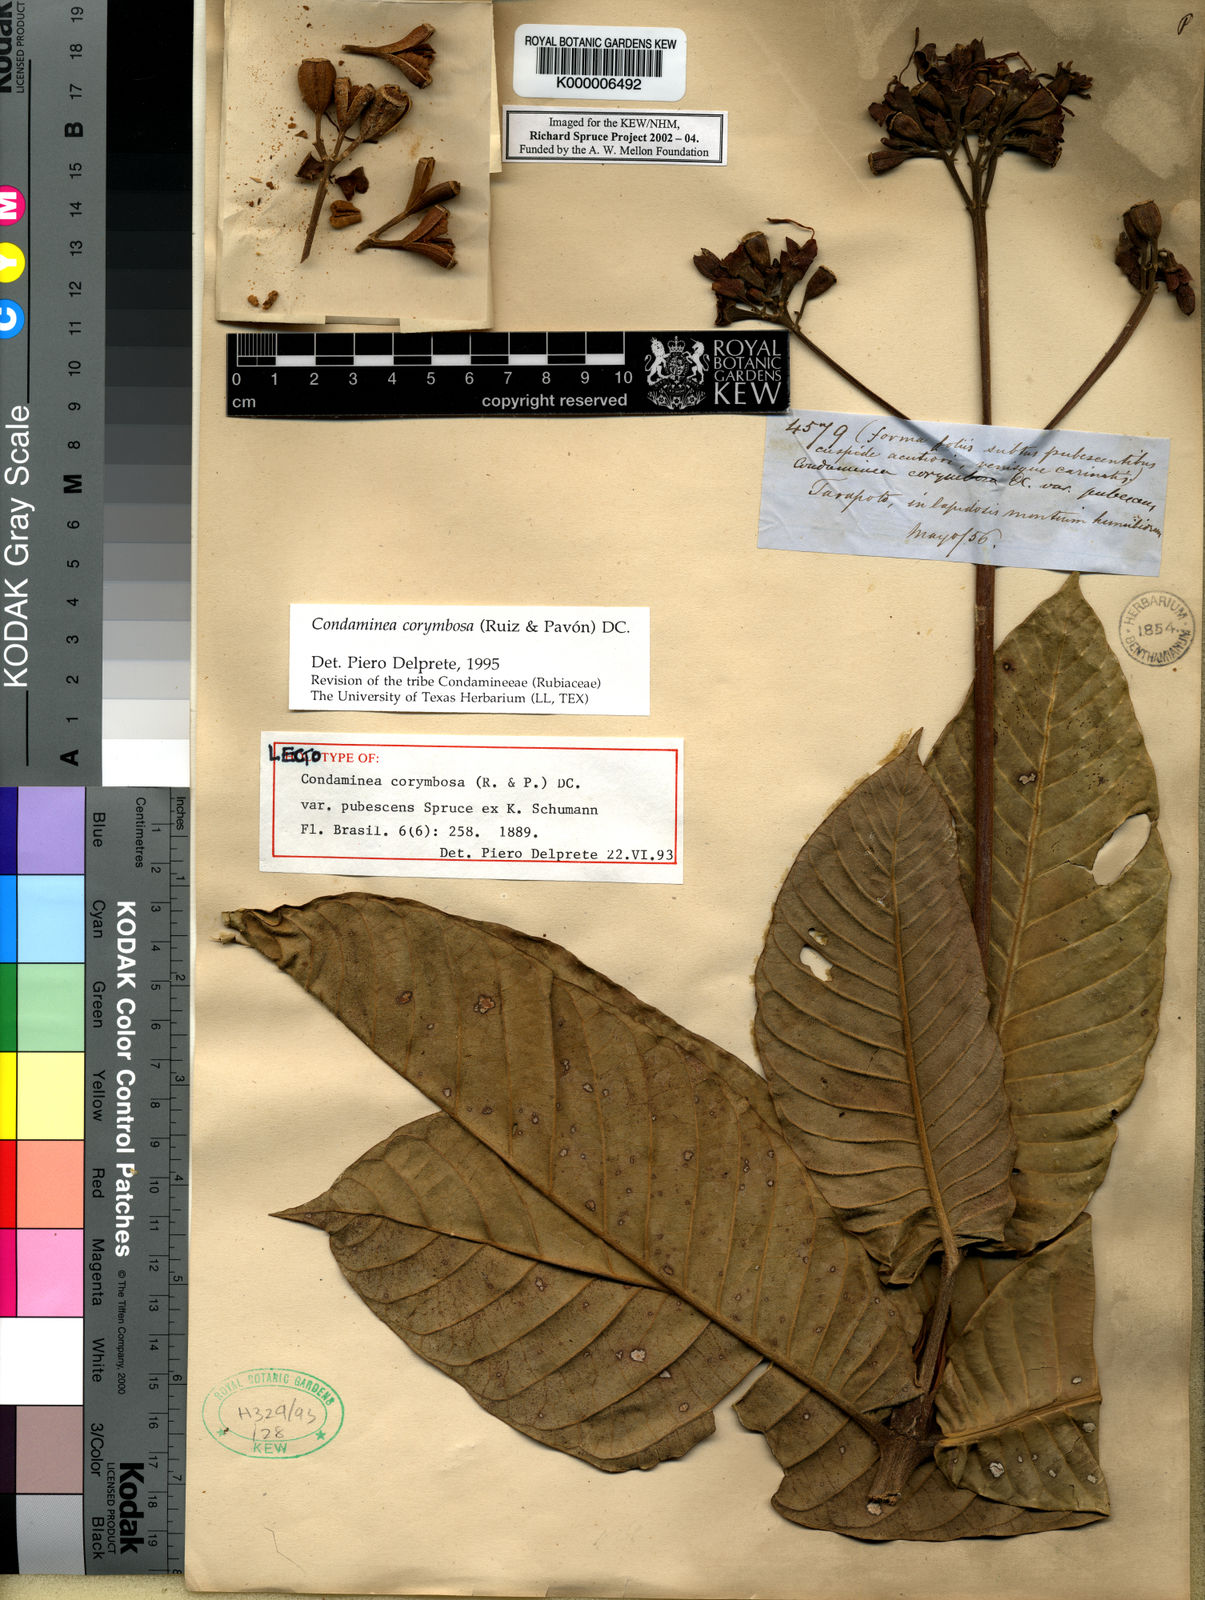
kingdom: Plantae
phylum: Tracheophyta
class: Magnoliopsida
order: Gentianales
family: Rubiaceae
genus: Condaminea
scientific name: Condaminea corymbosa
